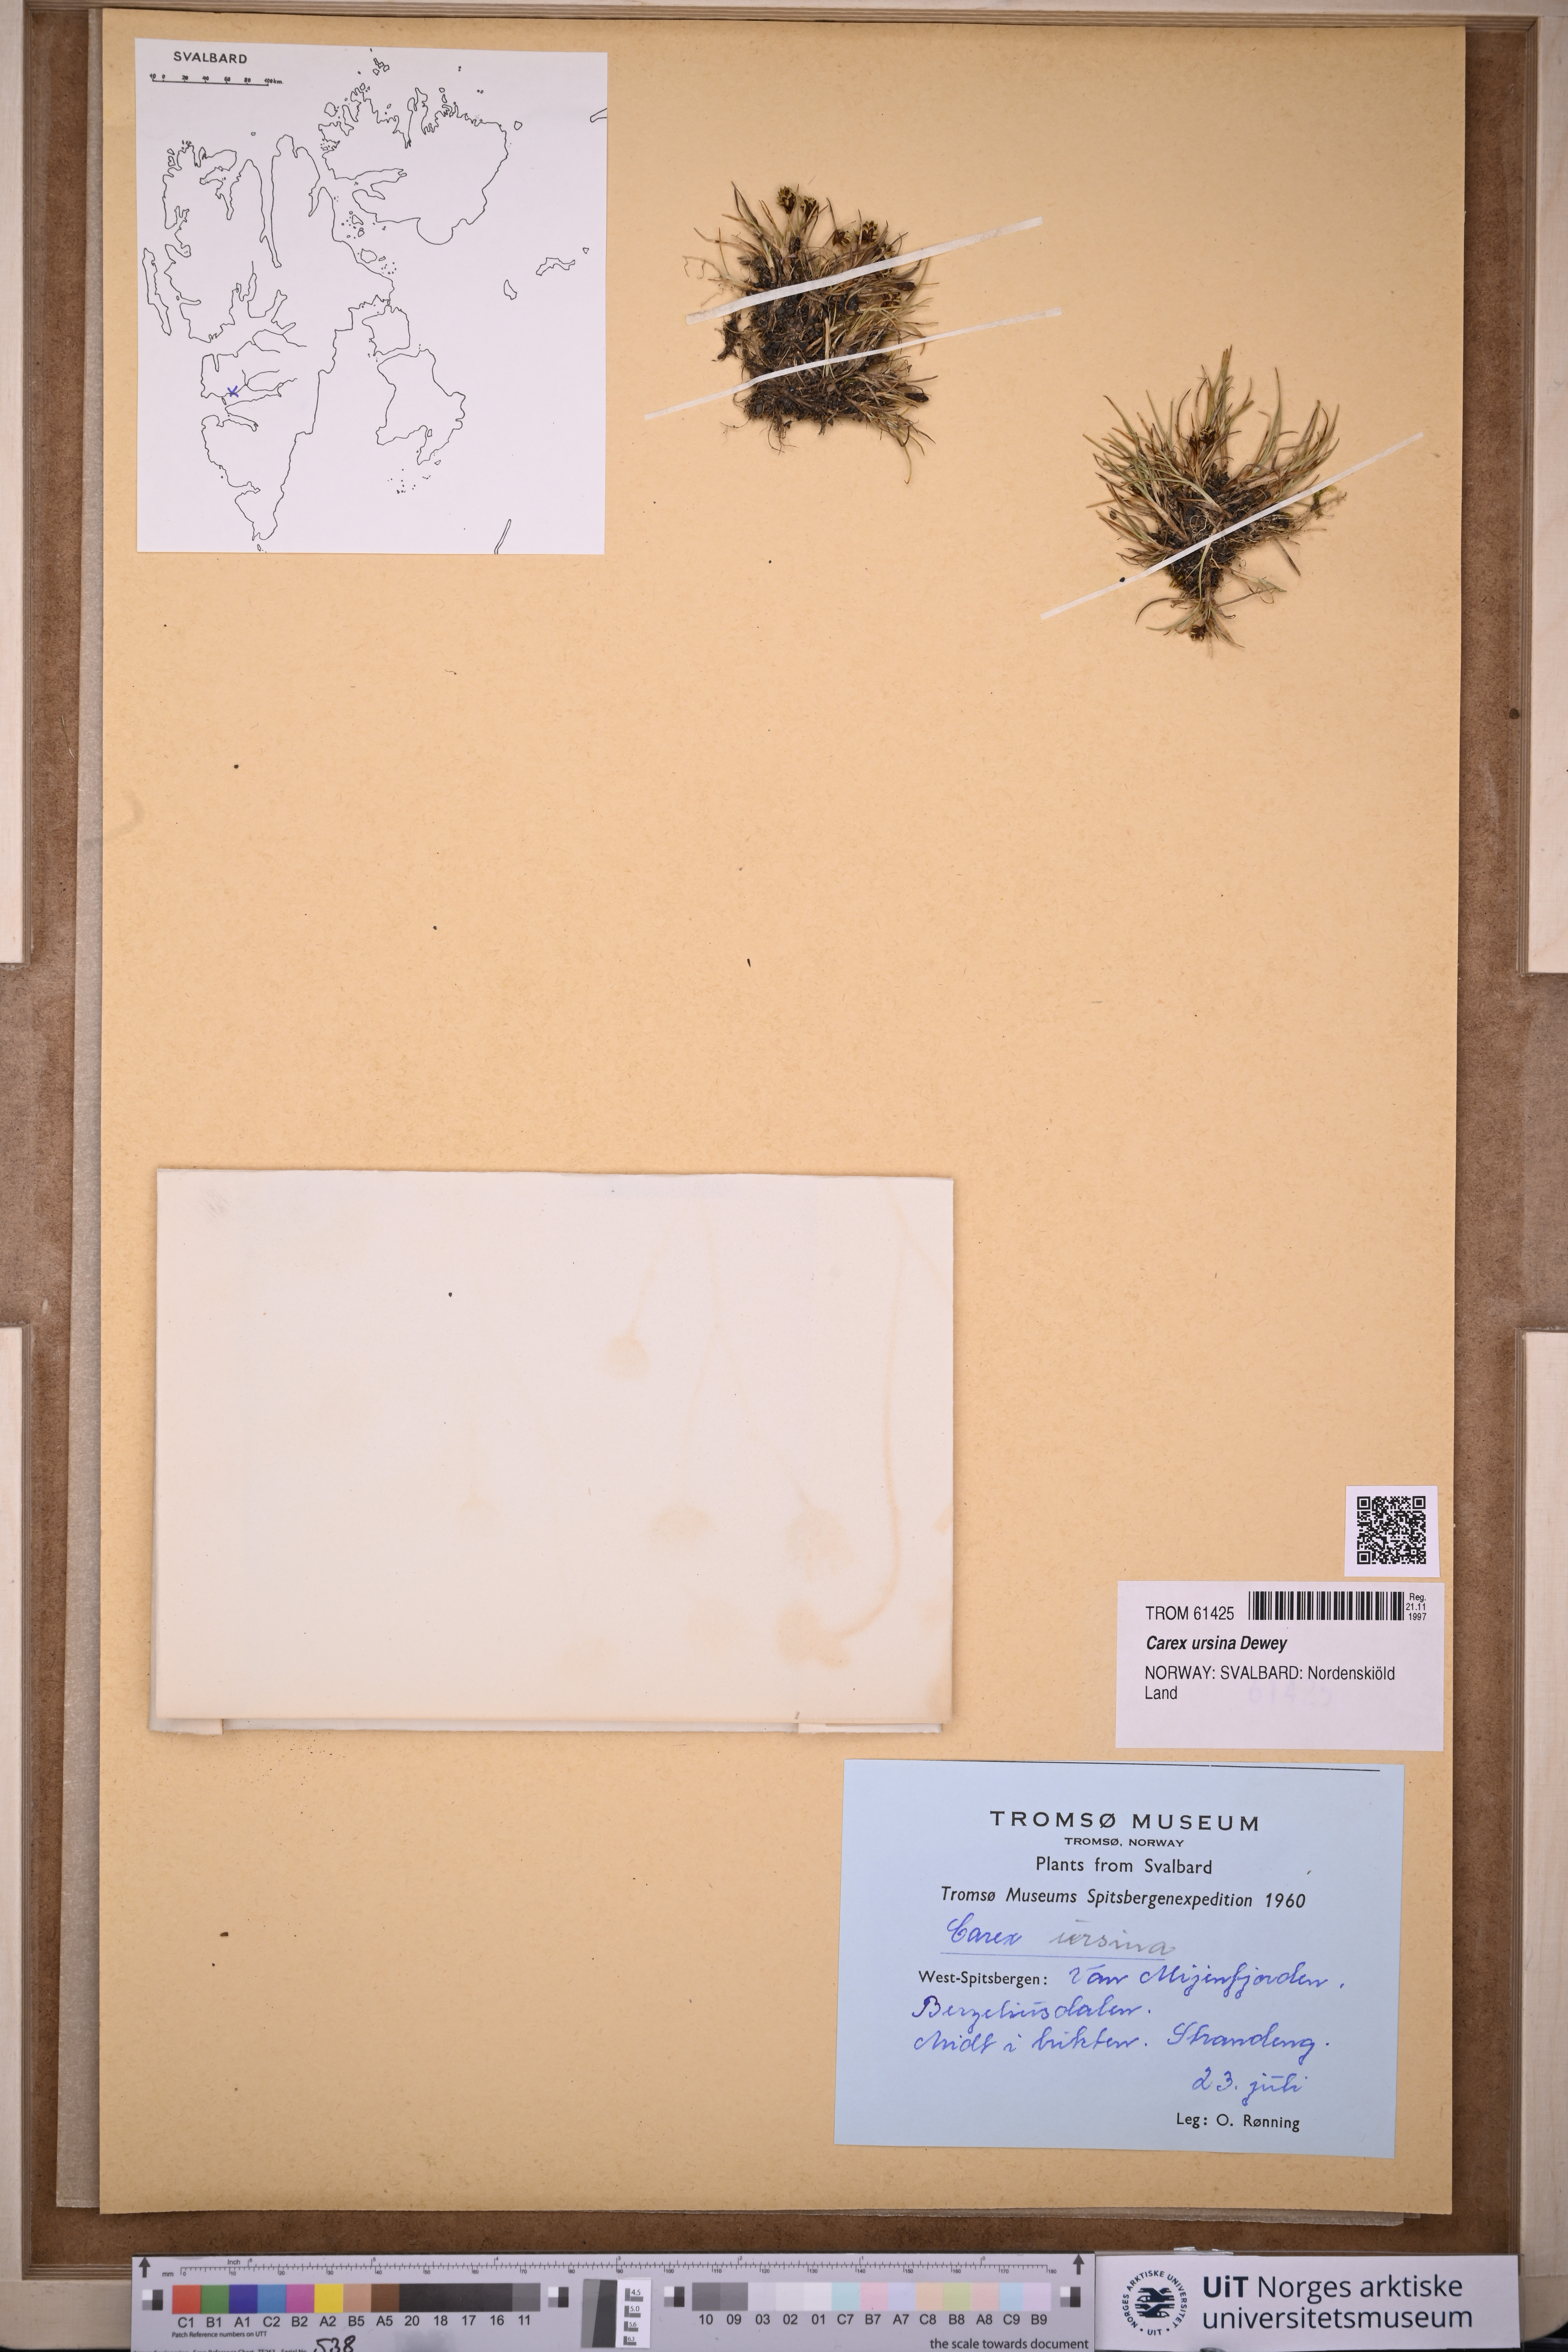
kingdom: Plantae
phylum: Tracheophyta
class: Liliopsida
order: Poales
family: Cyperaceae
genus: Carex
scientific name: Carex ursina
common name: Bear sedge
